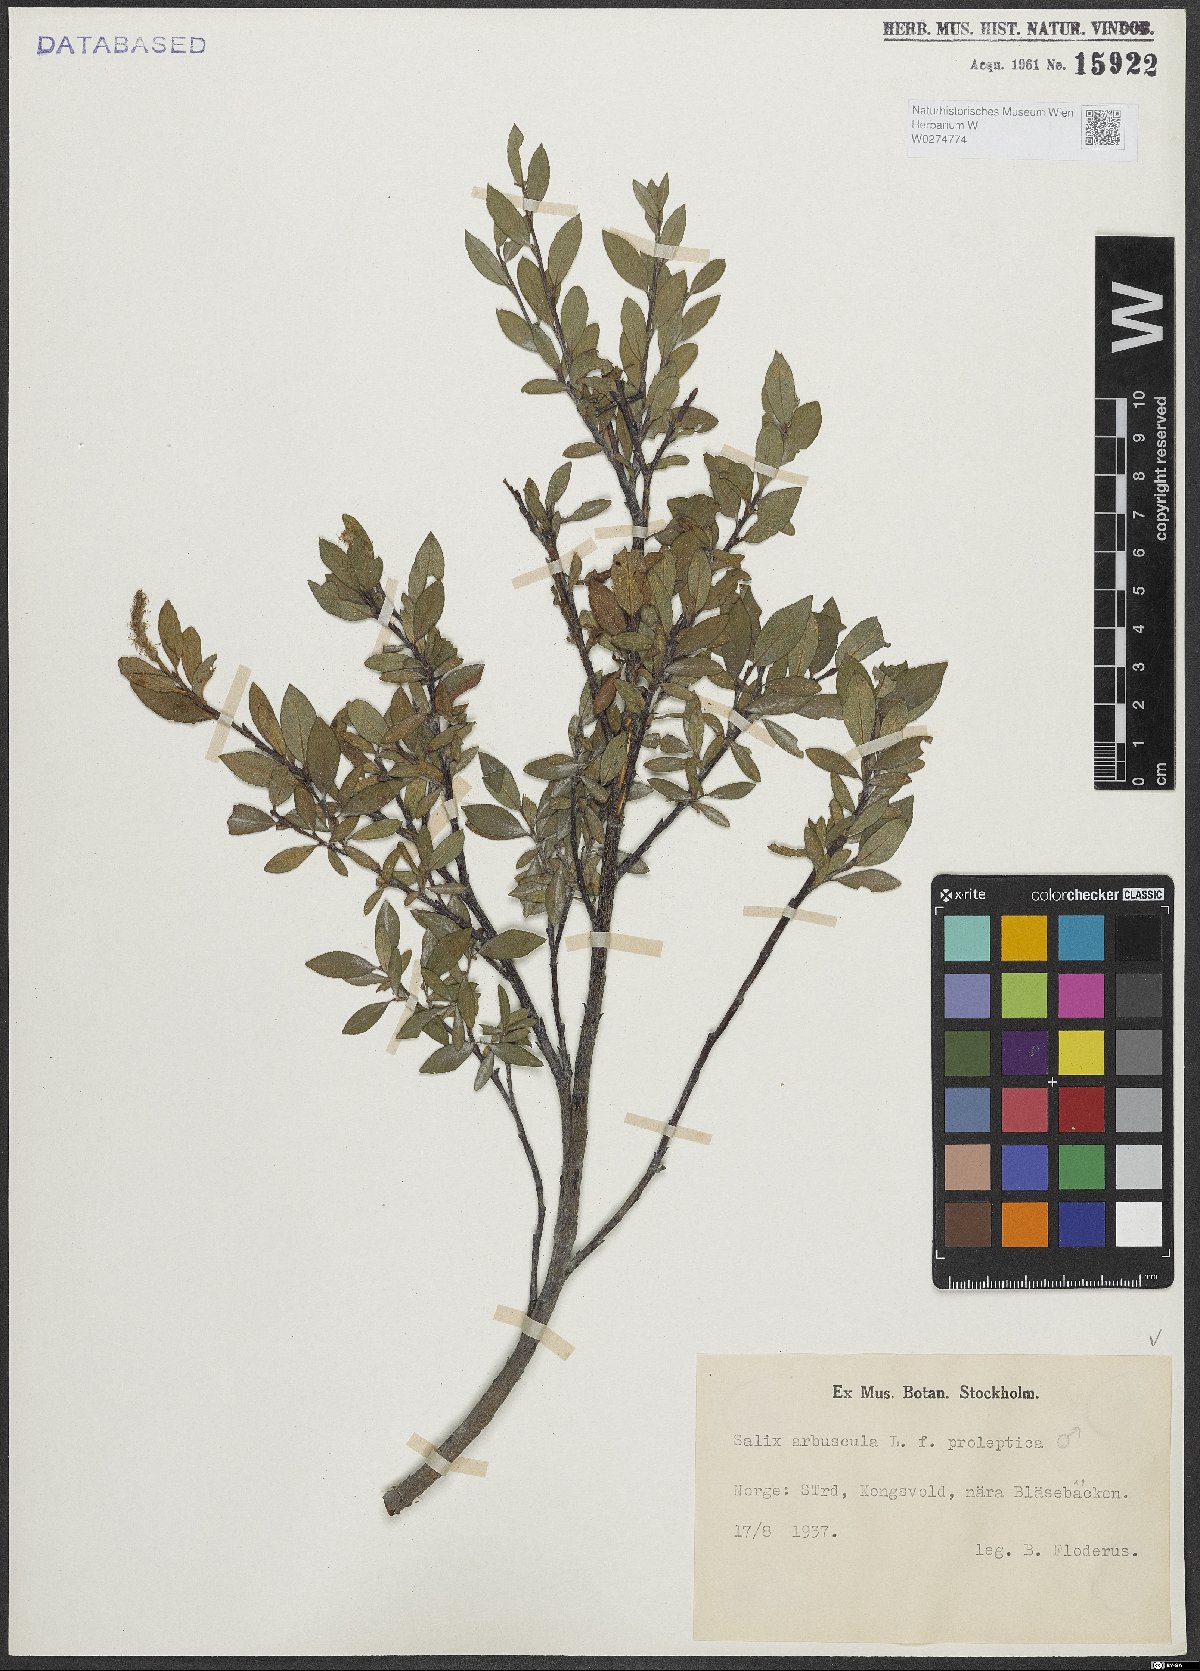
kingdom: Plantae
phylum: Tracheophyta
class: Magnoliopsida
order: Malpighiales
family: Salicaceae
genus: Salix
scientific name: Salix arbuscula
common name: Mountain willow
